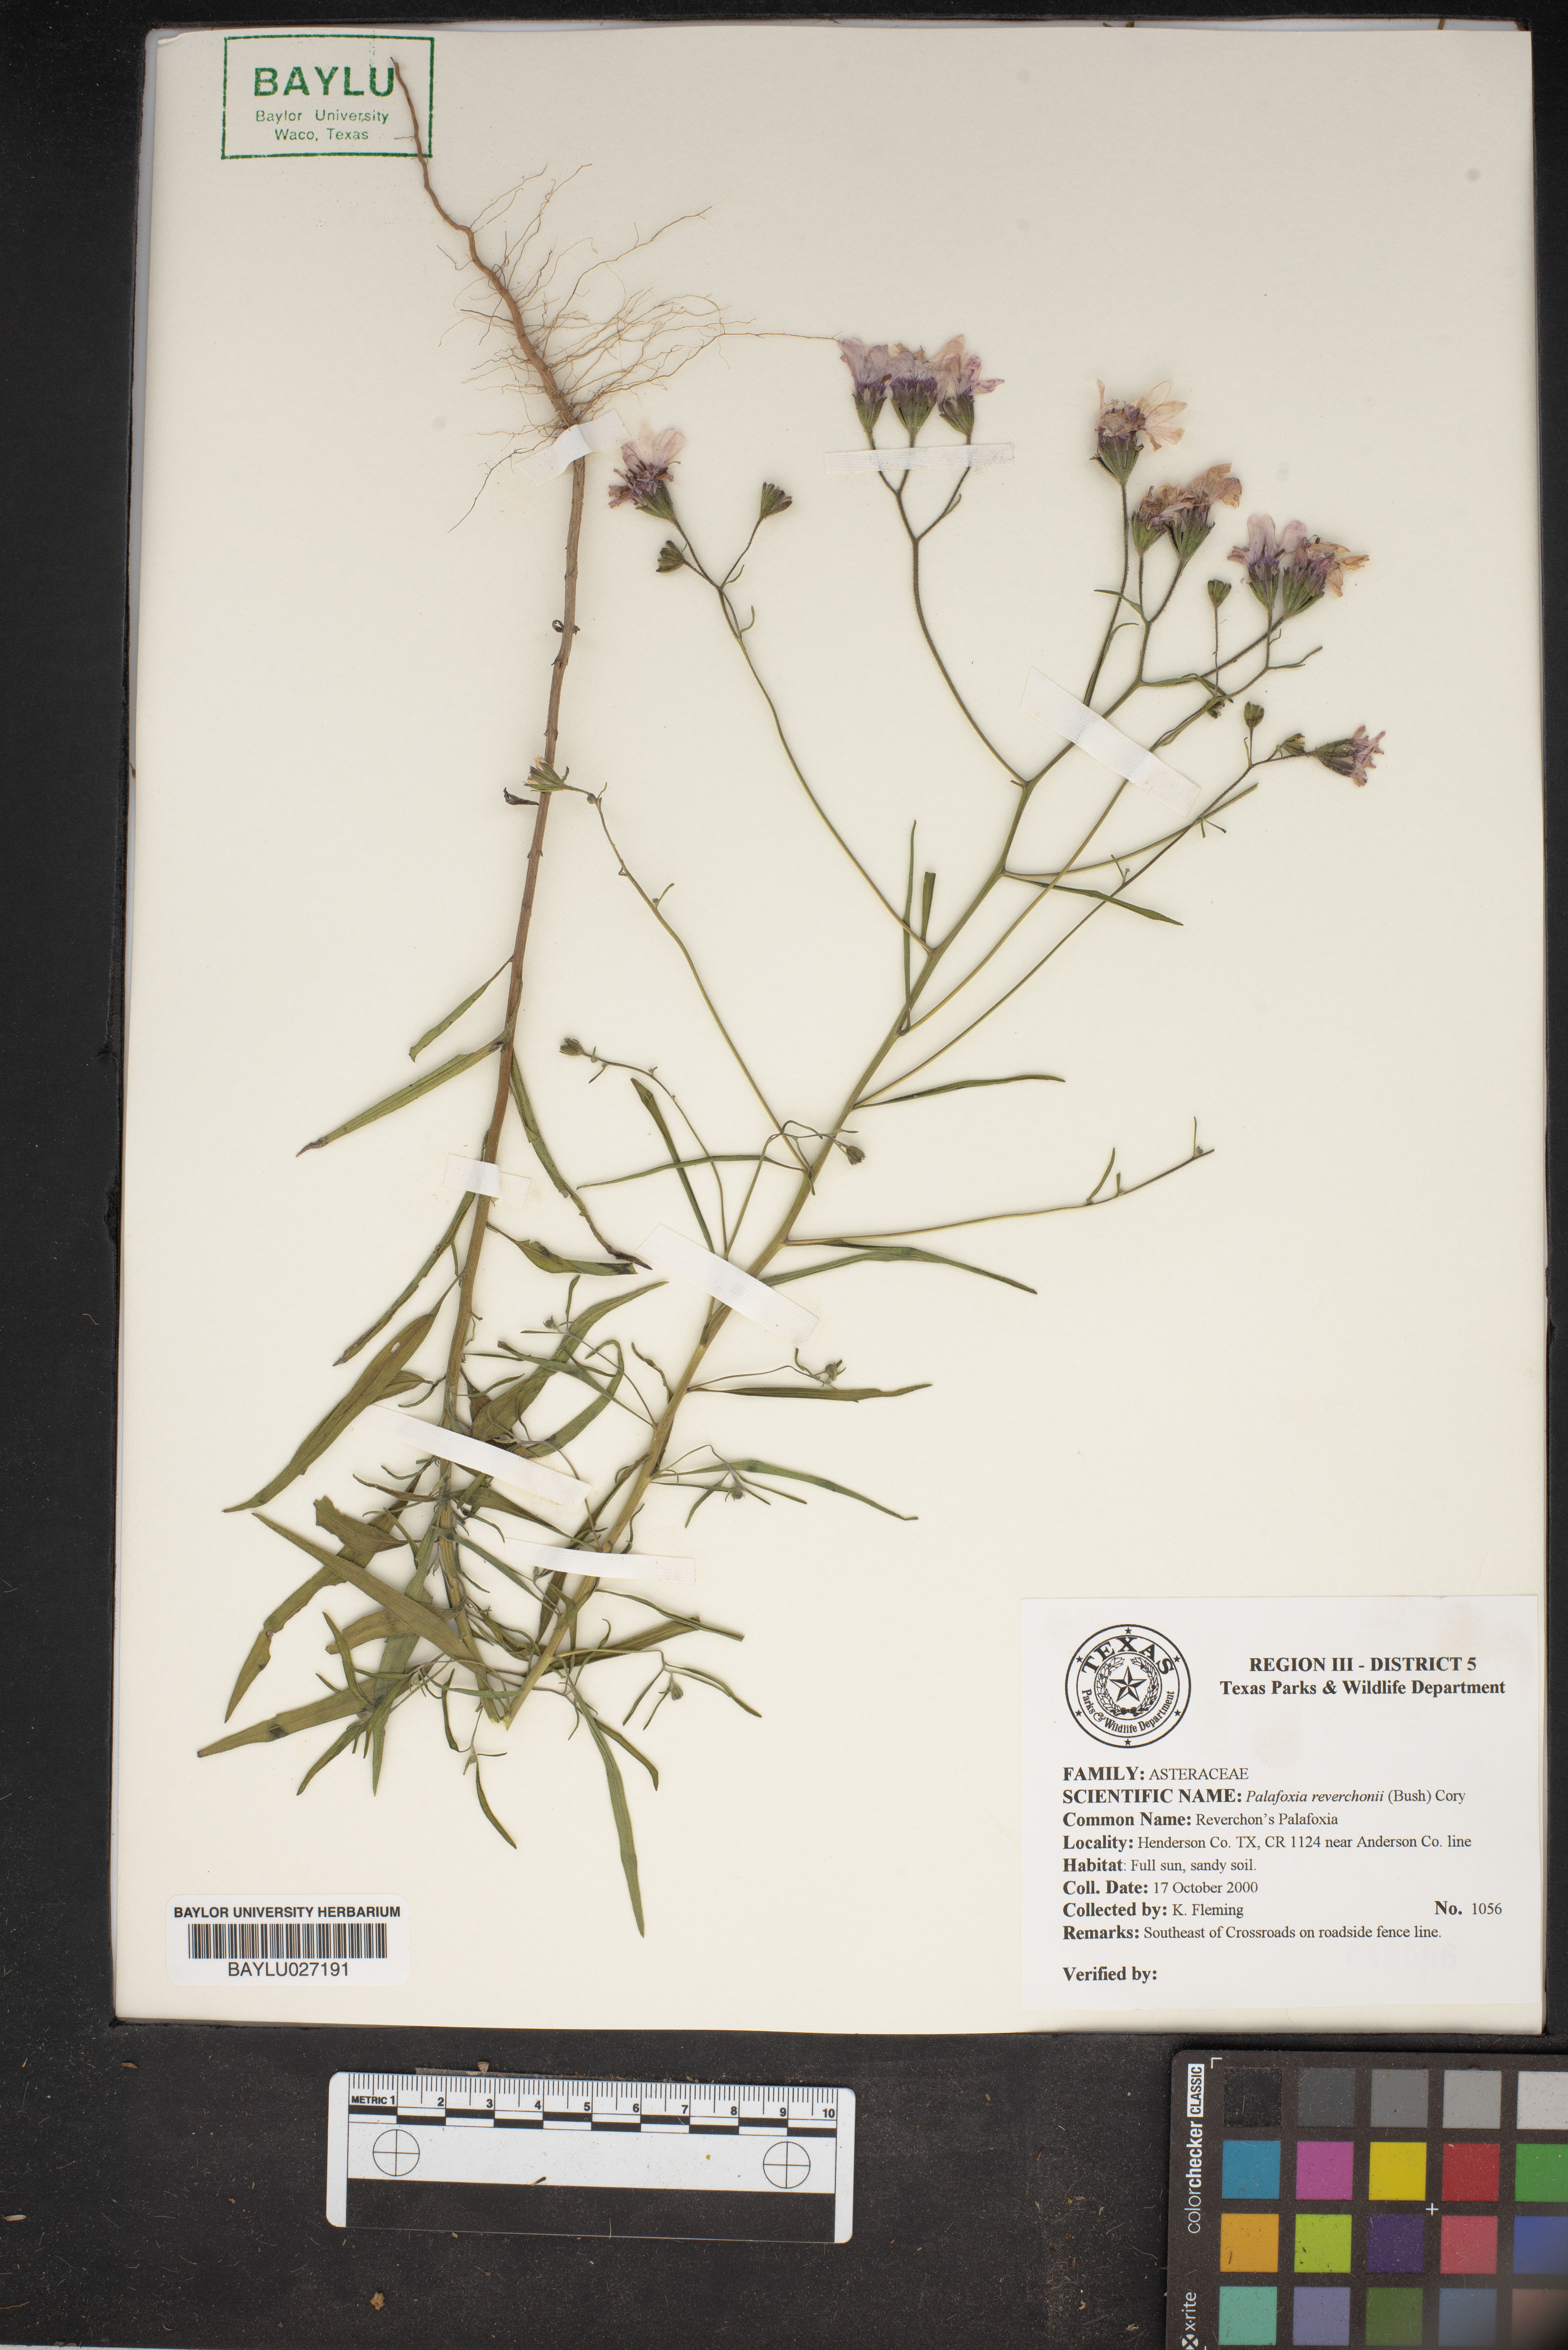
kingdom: Plantae
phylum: Tracheophyta
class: Magnoliopsida
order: Asterales
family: Asteraceae
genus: Palafoxia
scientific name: Palafoxia reverchonii
